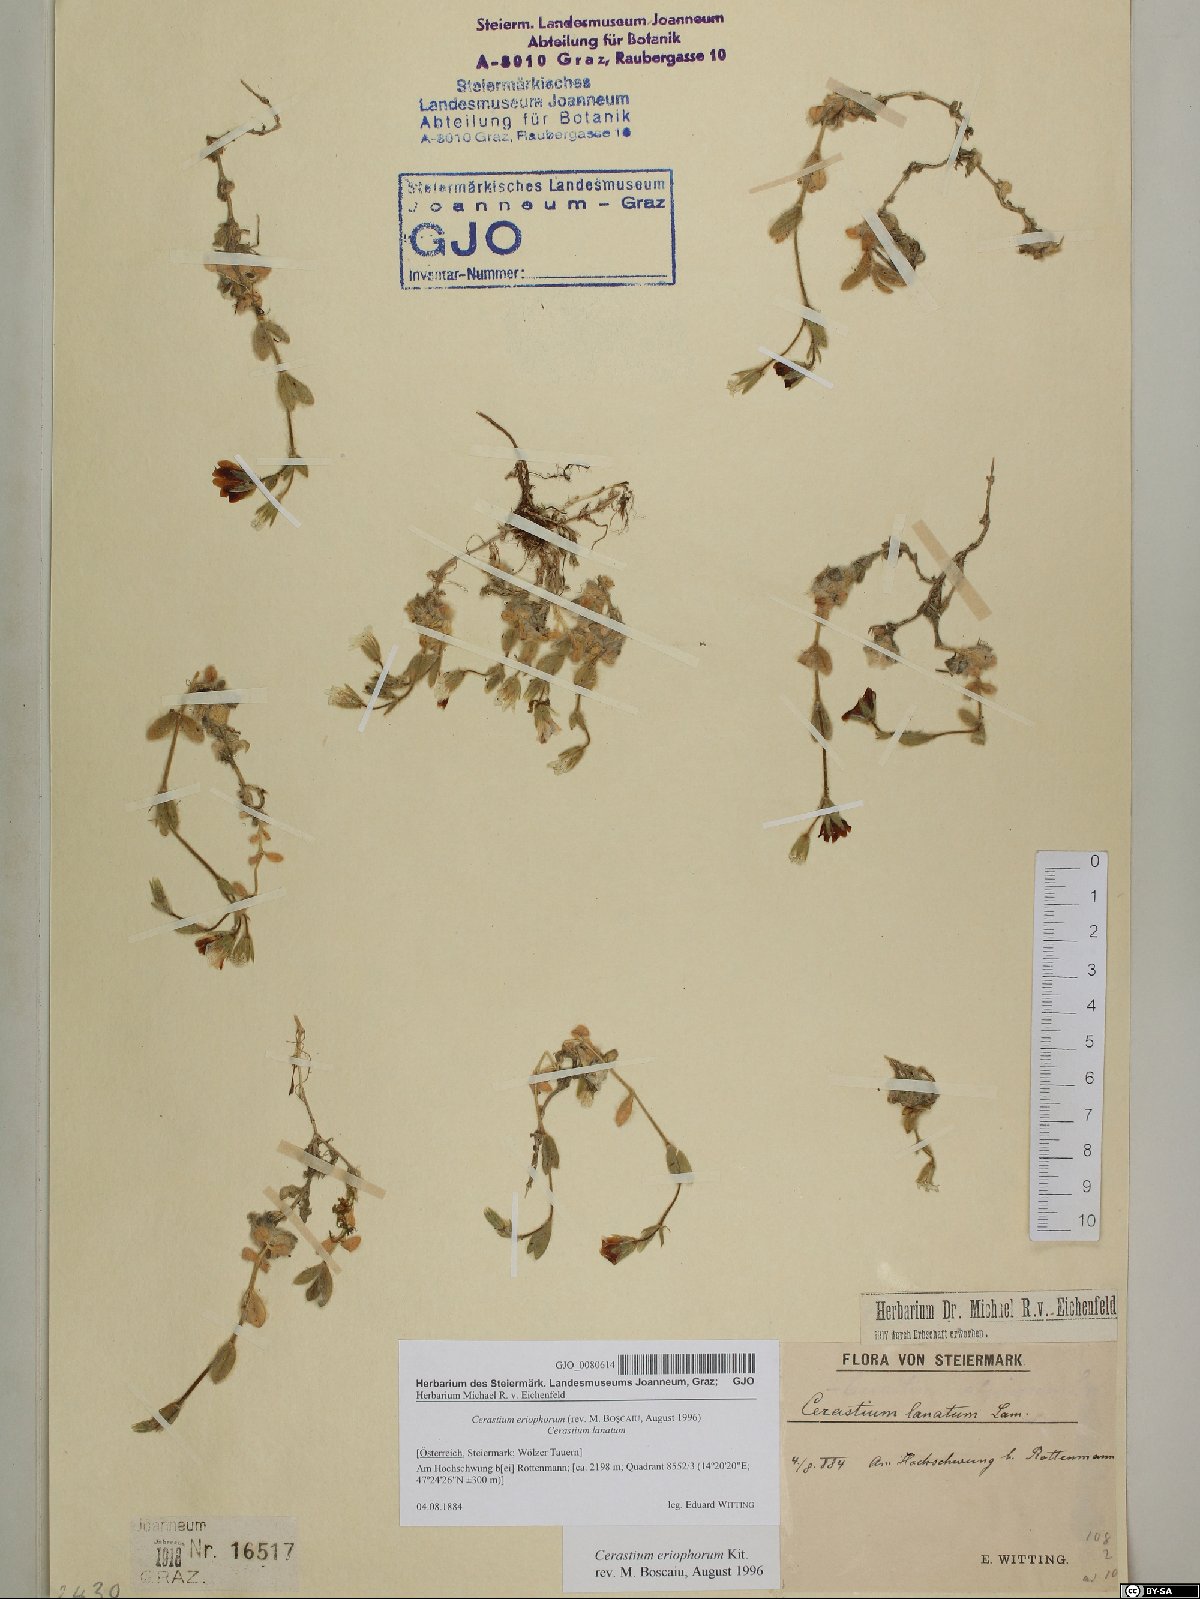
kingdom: Plantae
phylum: Tracheophyta
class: Magnoliopsida
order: Caryophyllales
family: Caryophyllaceae
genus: Cerastium
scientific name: Cerastium eriophorum
